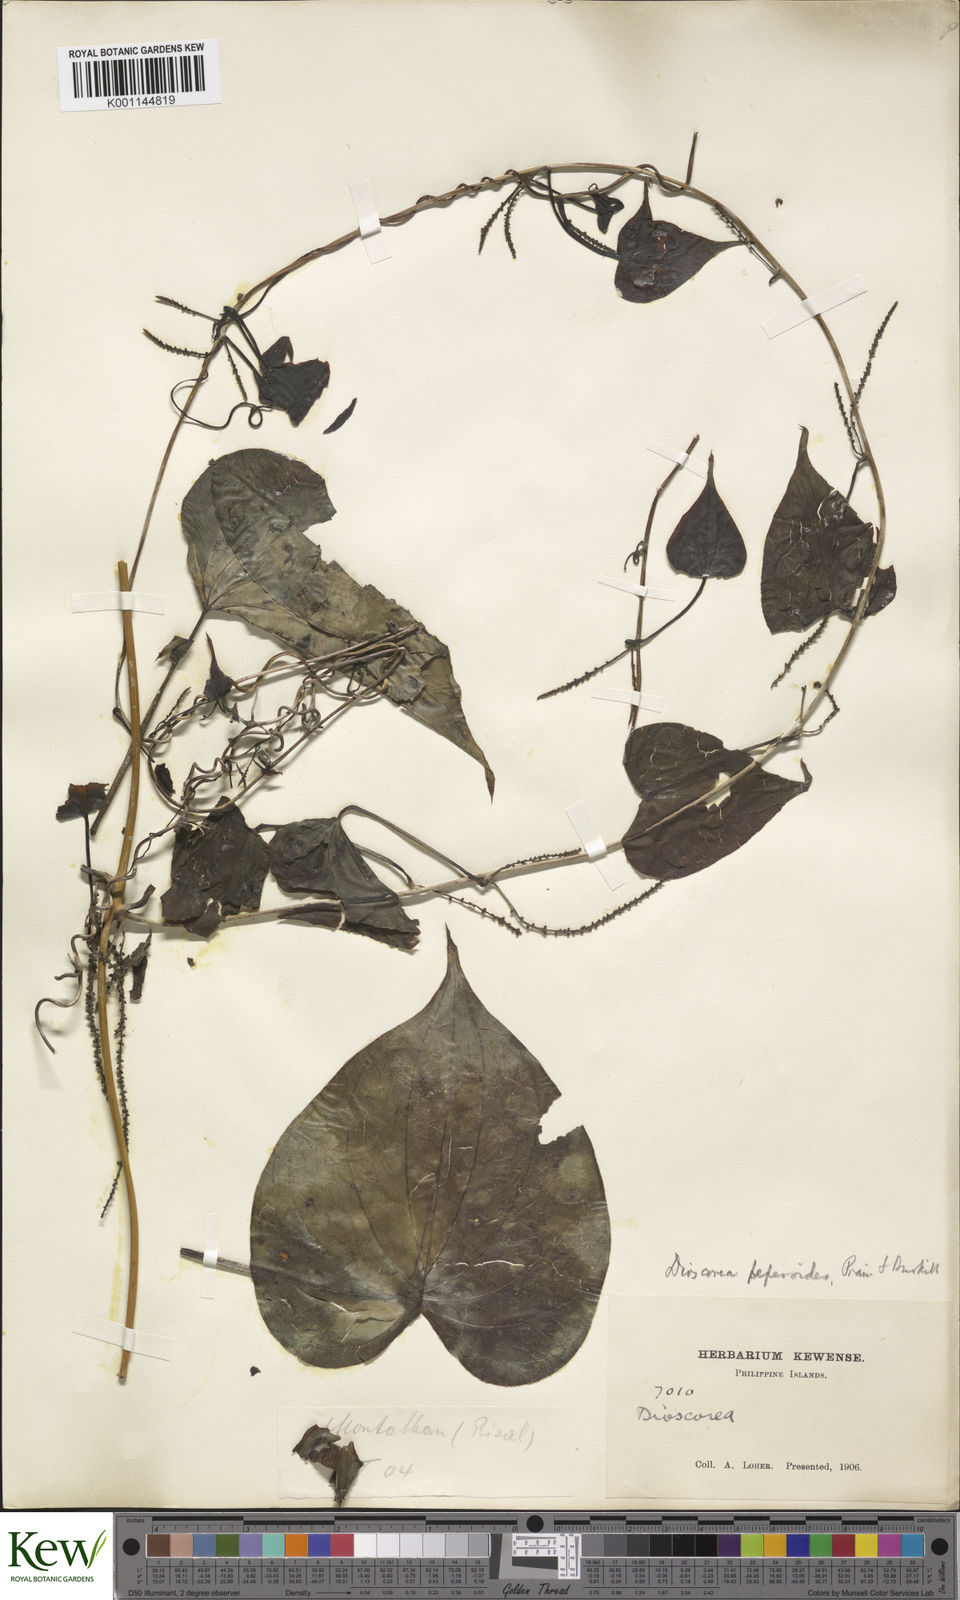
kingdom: Plantae
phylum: Tracheophyta
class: Liliopsida
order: Dioscoreales
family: Dioscoreaceae
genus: Dioscorea
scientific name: Dioscorea peperoides
